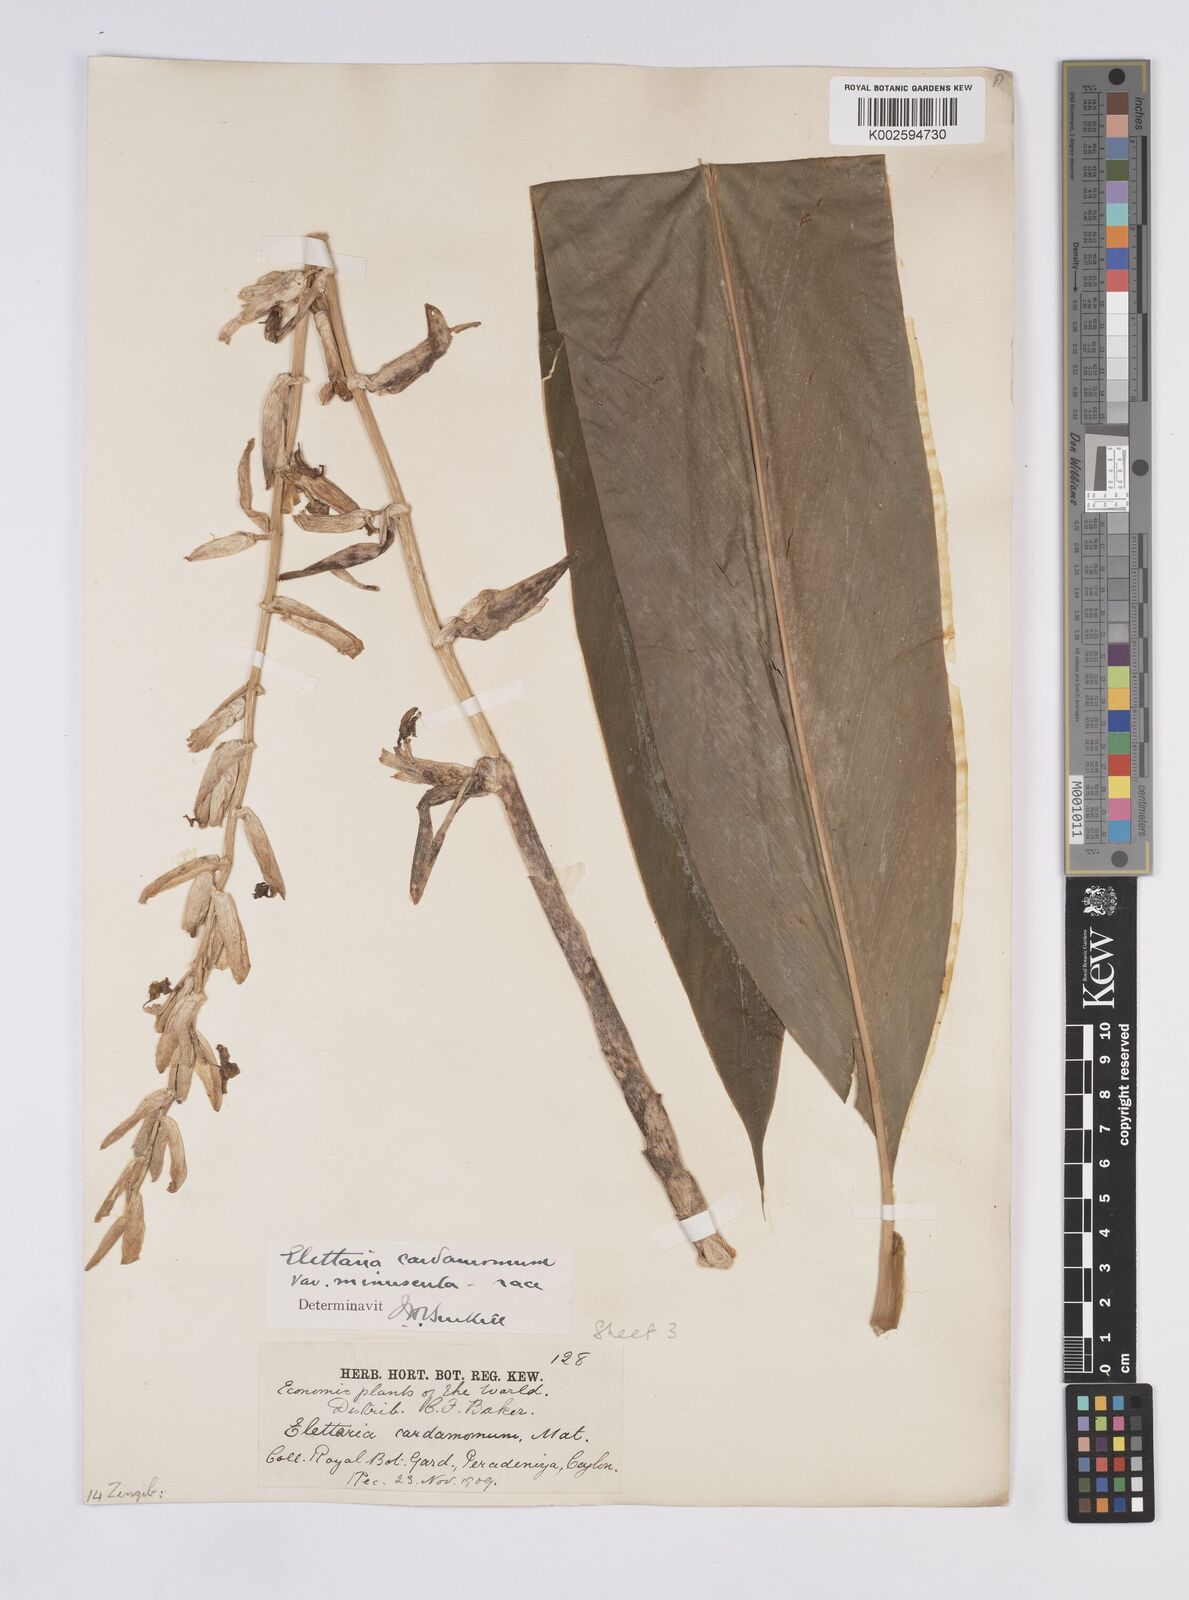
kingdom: Plantae
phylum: Tracheophyta
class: Liliopsida
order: Zingiberales
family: Zingiberaceae
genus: Elettaria
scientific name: Elettaria cardamomum
